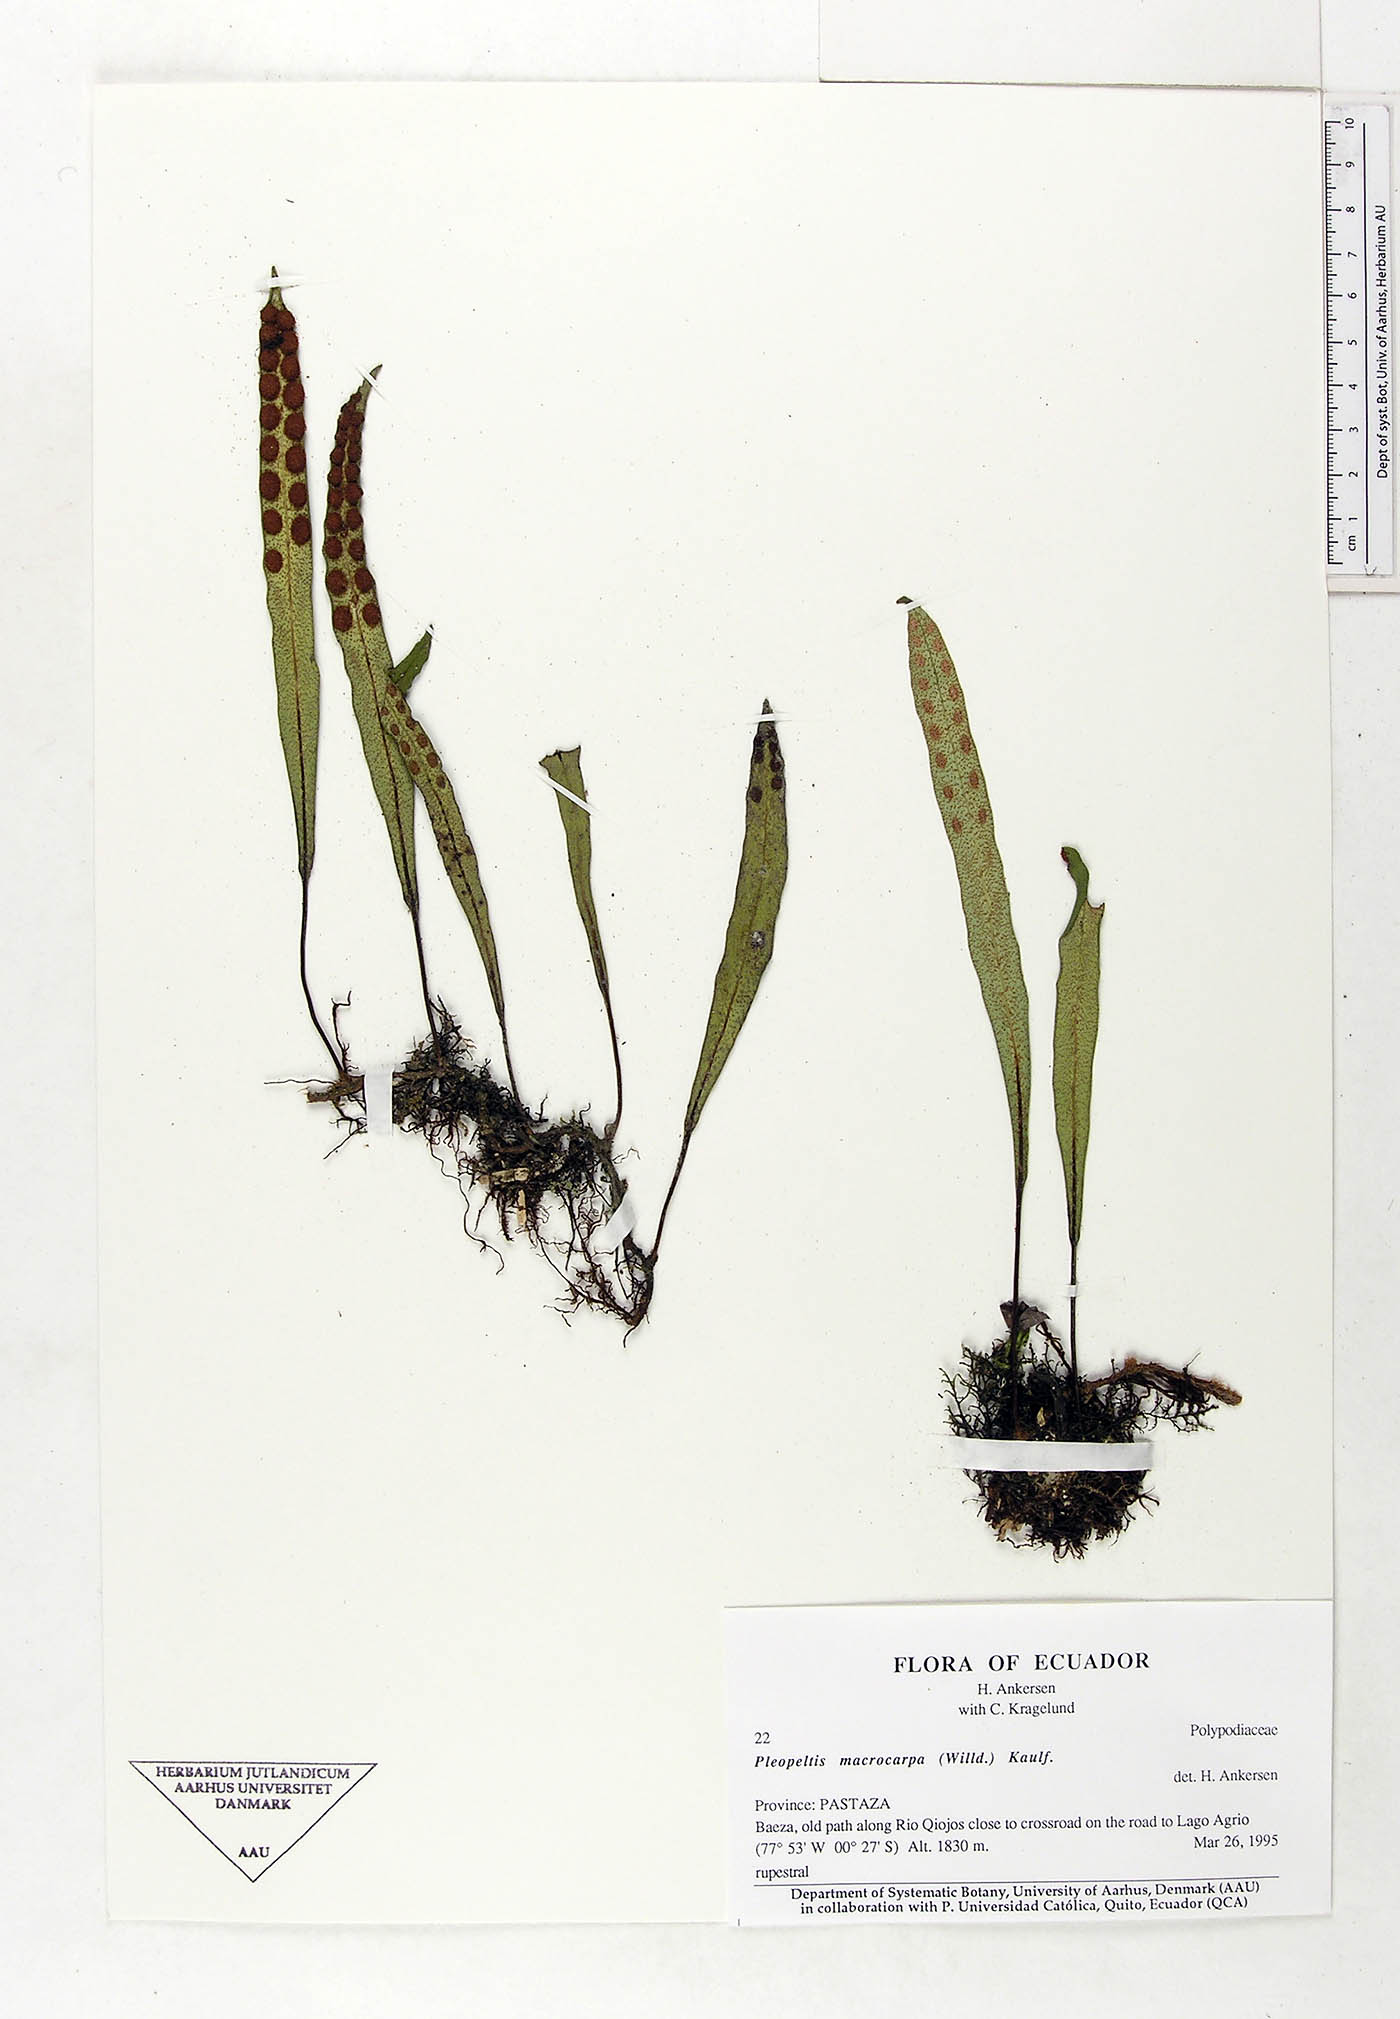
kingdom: Plantae
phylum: Tracheophyta
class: Polypodiopsida
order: Polypodiales
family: Polypodiaceae
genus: Pleopeltis
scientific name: Pleopeltis macrocarpa
